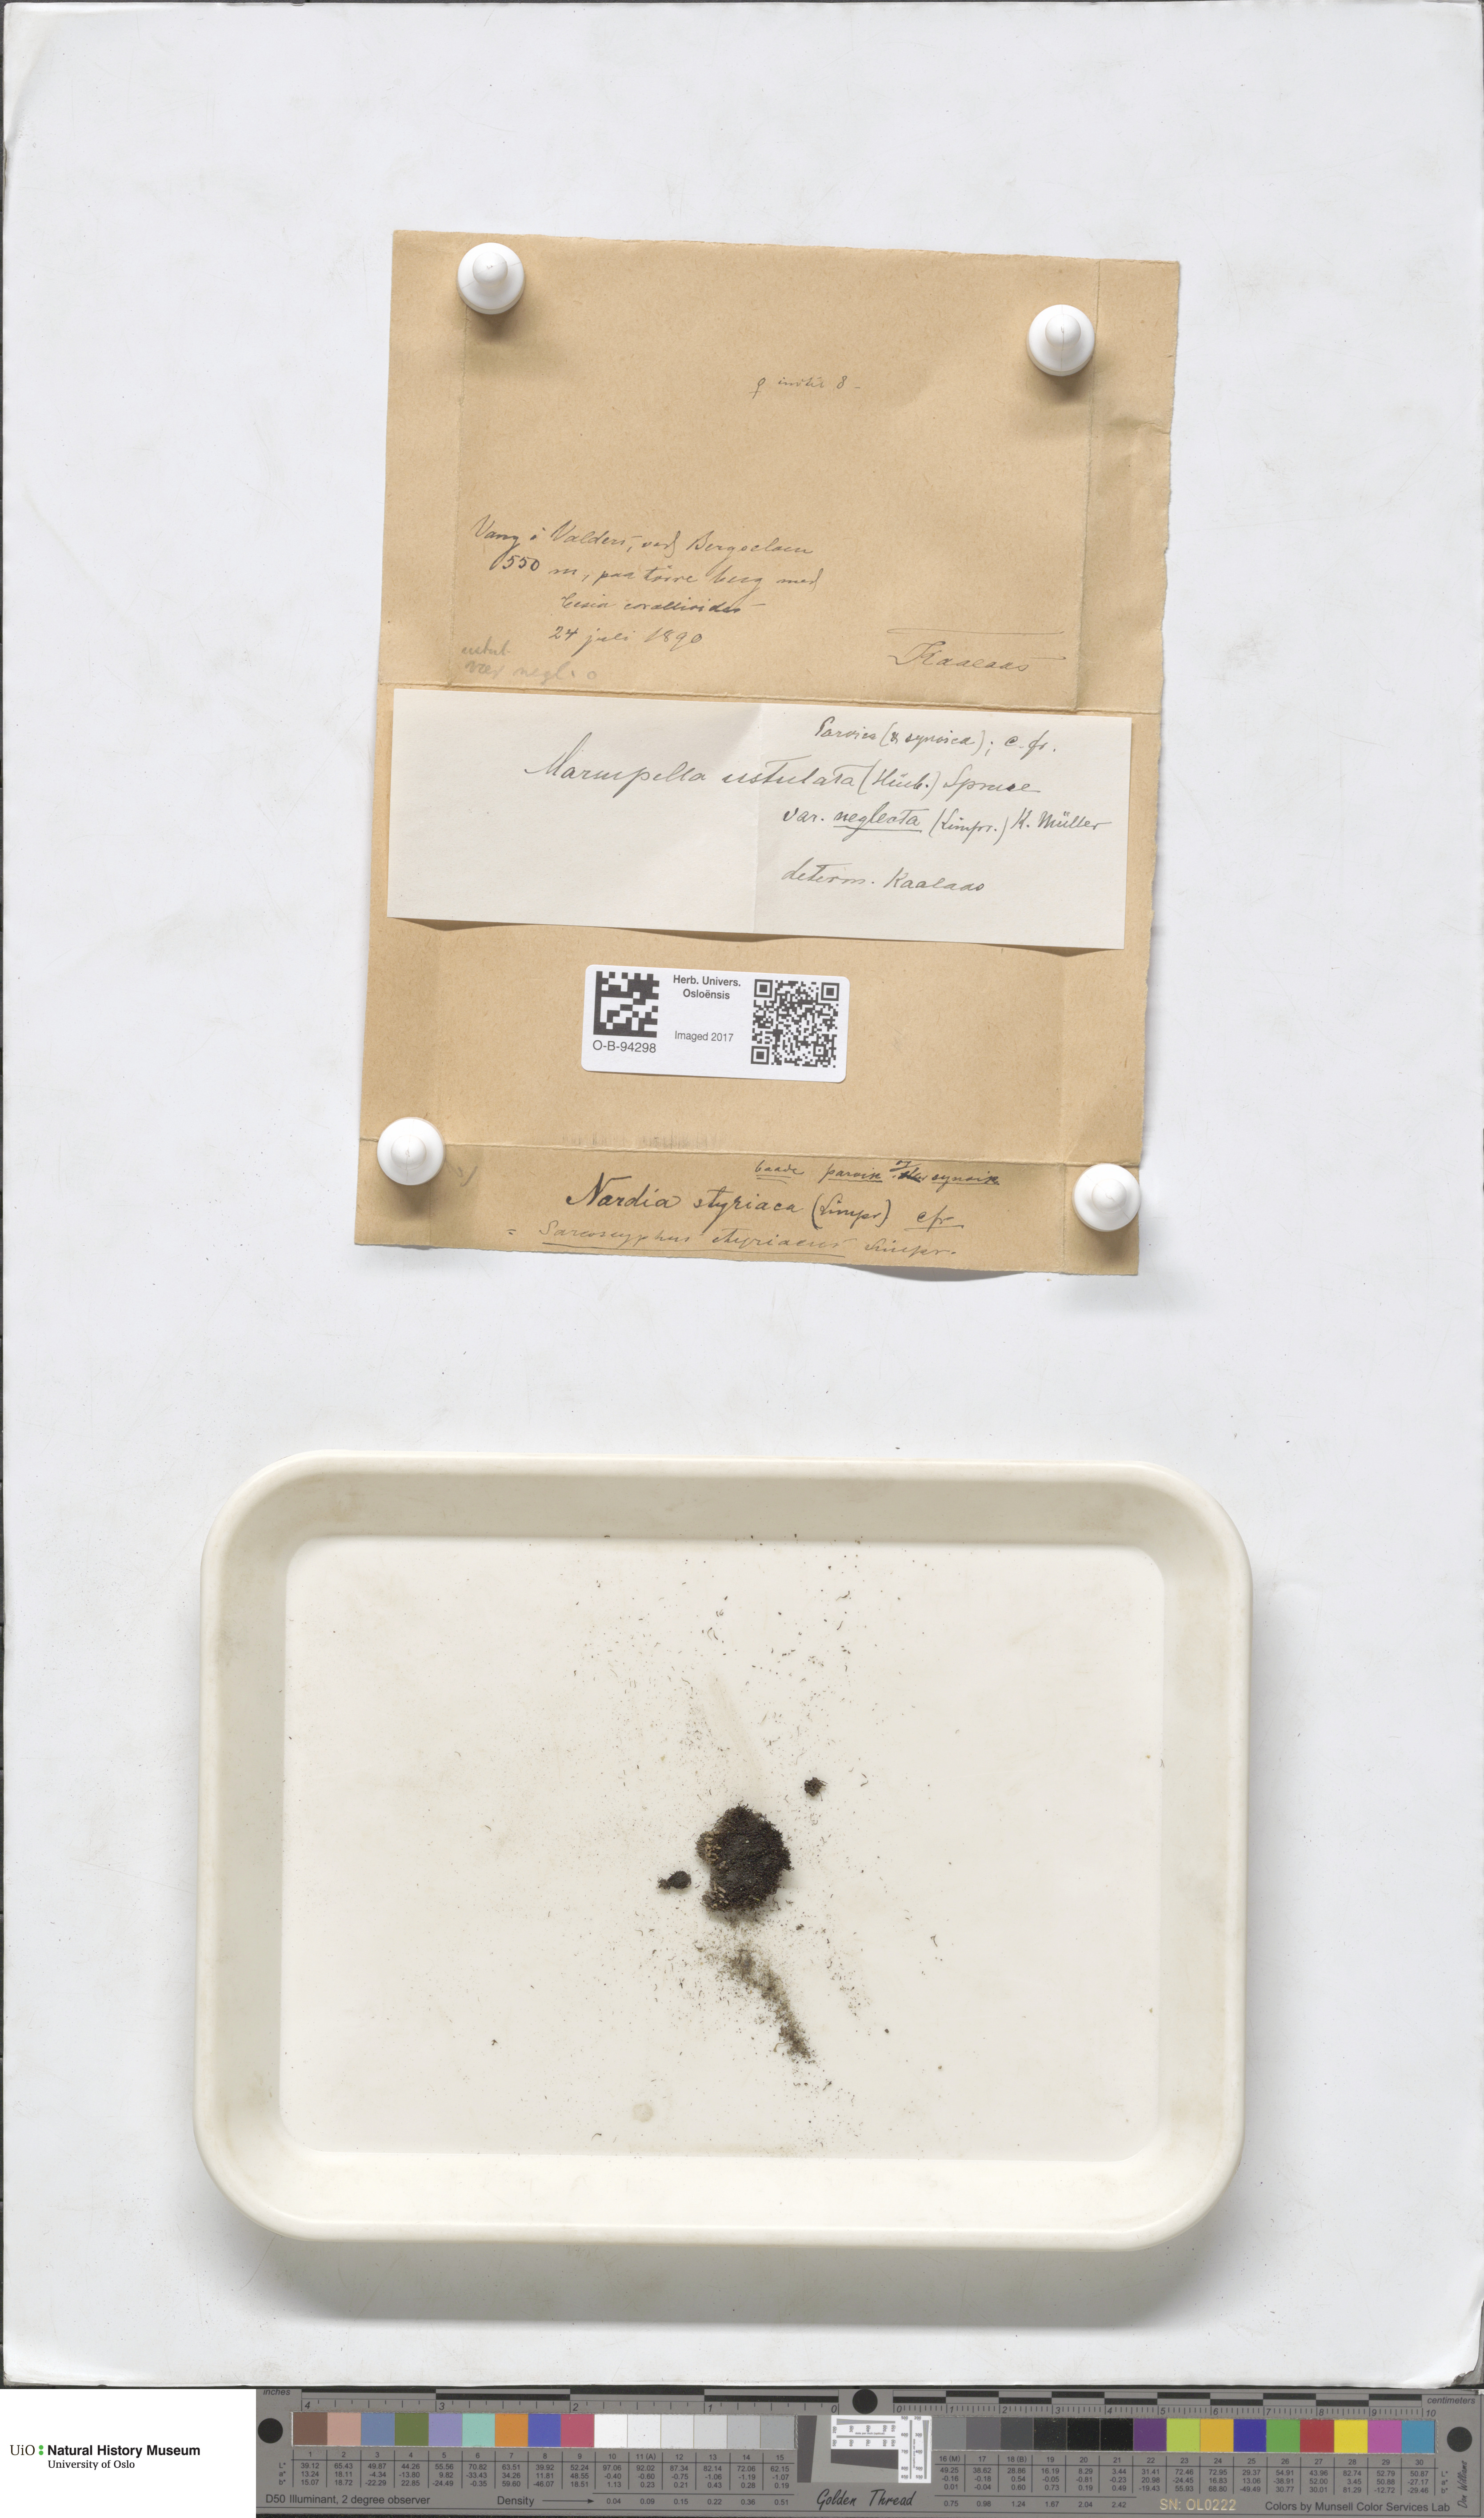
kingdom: Plantae
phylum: Marchantiophyta
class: Jungermanniopsida
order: Jungermanniales
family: Gymnomitriaceae
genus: Marsupella
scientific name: Marsupella sprucei
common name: Spruce s rustwort
